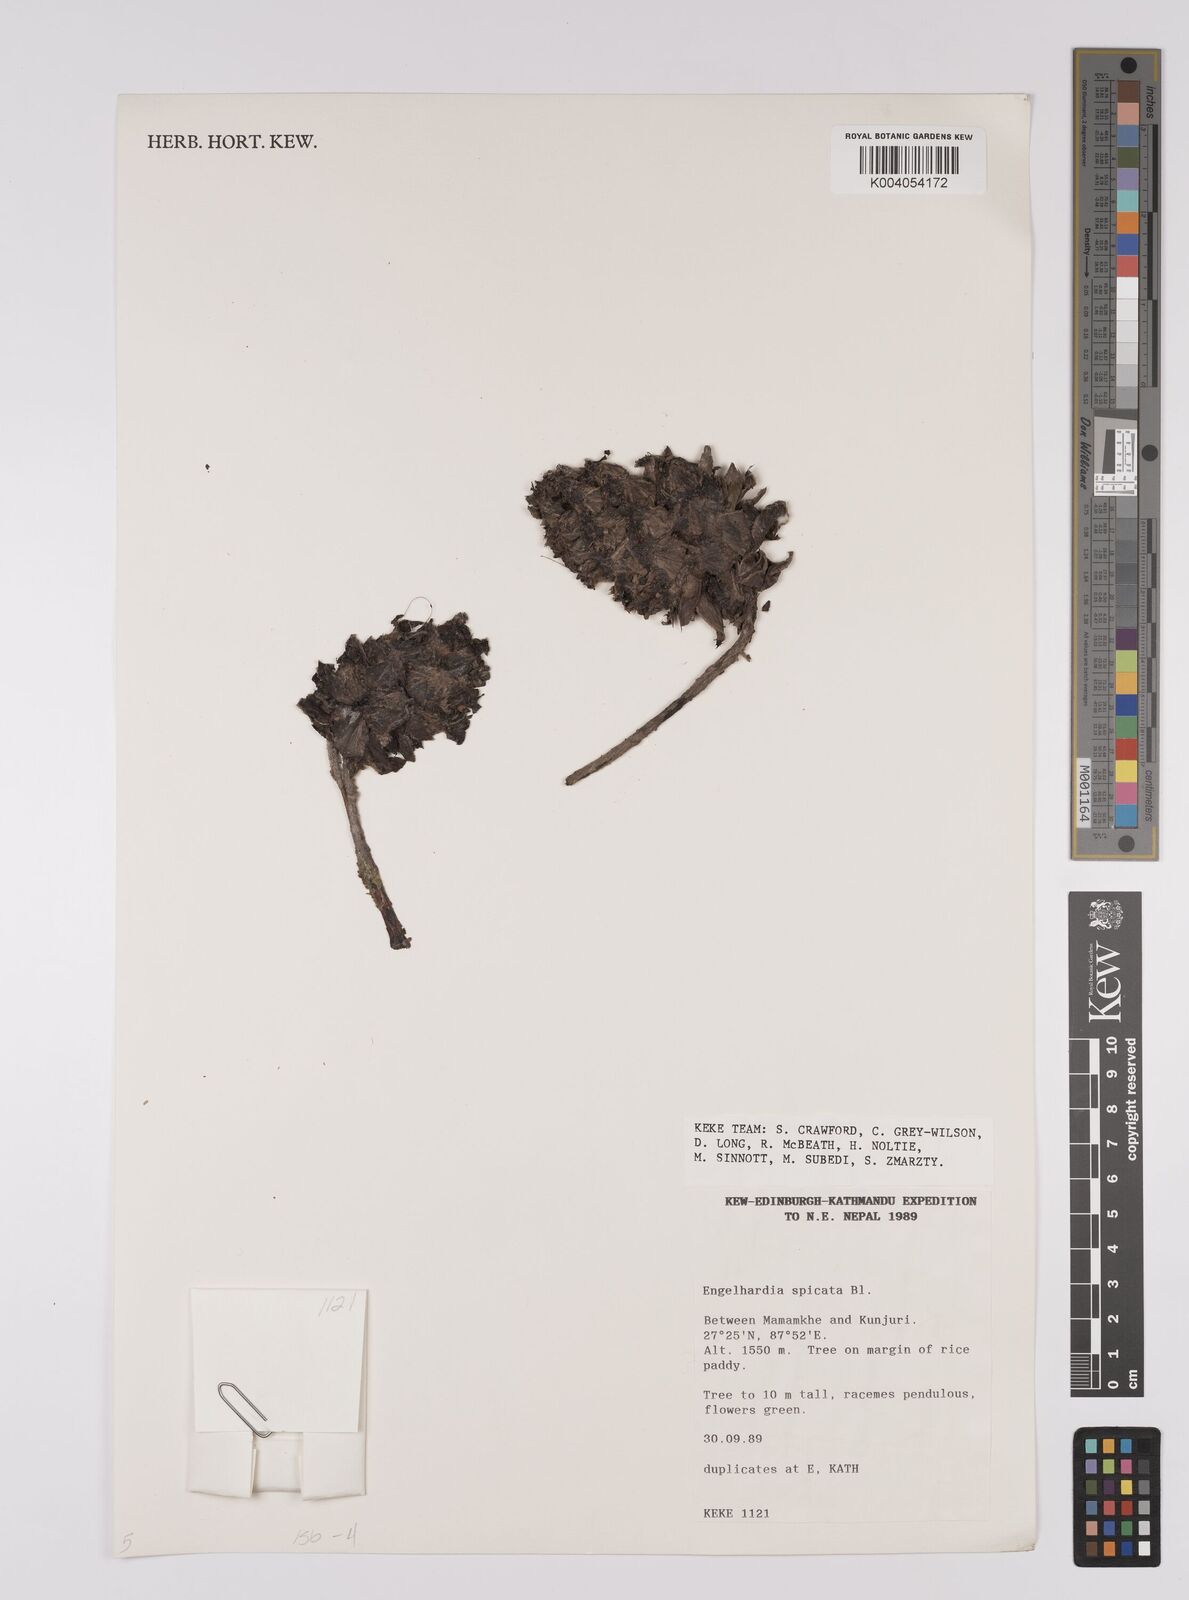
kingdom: Plantae
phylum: Tracheophyta
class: Magnoliopsida
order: Fagales
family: Juglandaceae
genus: Engelhardia
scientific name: Engelhardia spicata
